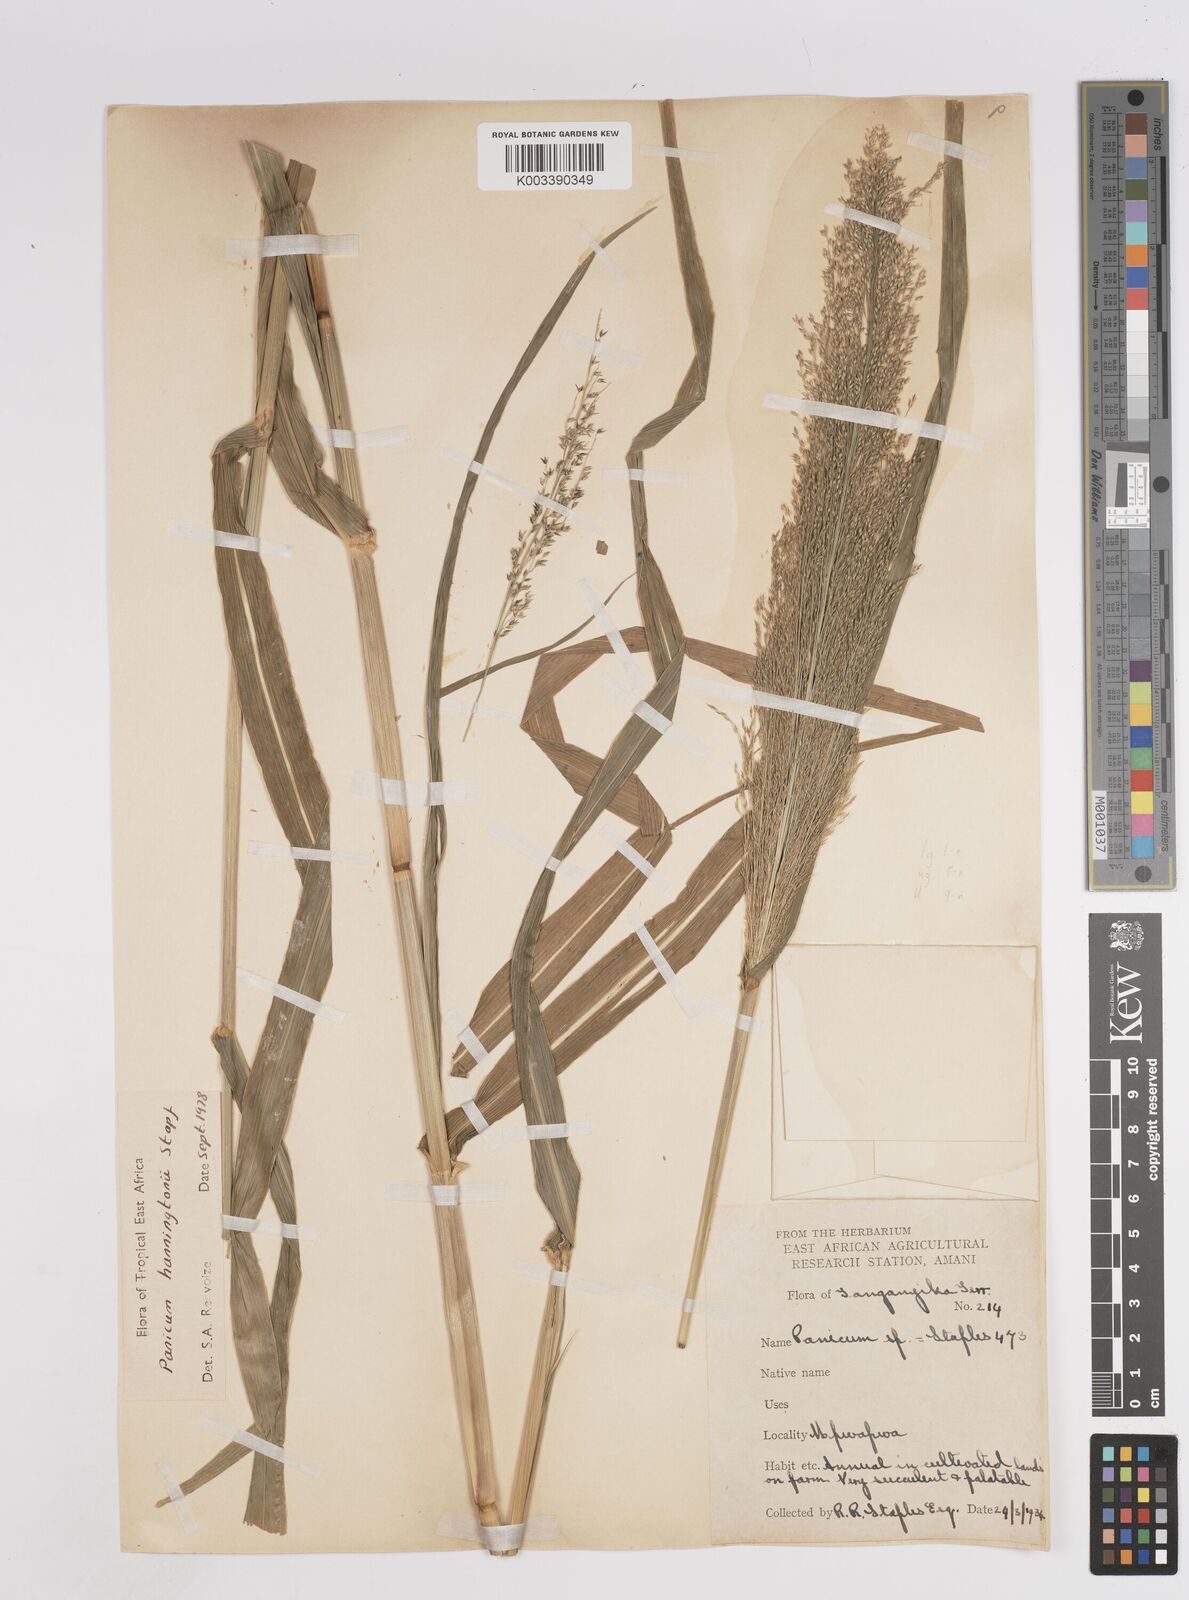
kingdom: Plantae
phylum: Tracheophyta
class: Liliopsida
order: Poales
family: Poaceae
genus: Panicum
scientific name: Panicum hanningtonii
